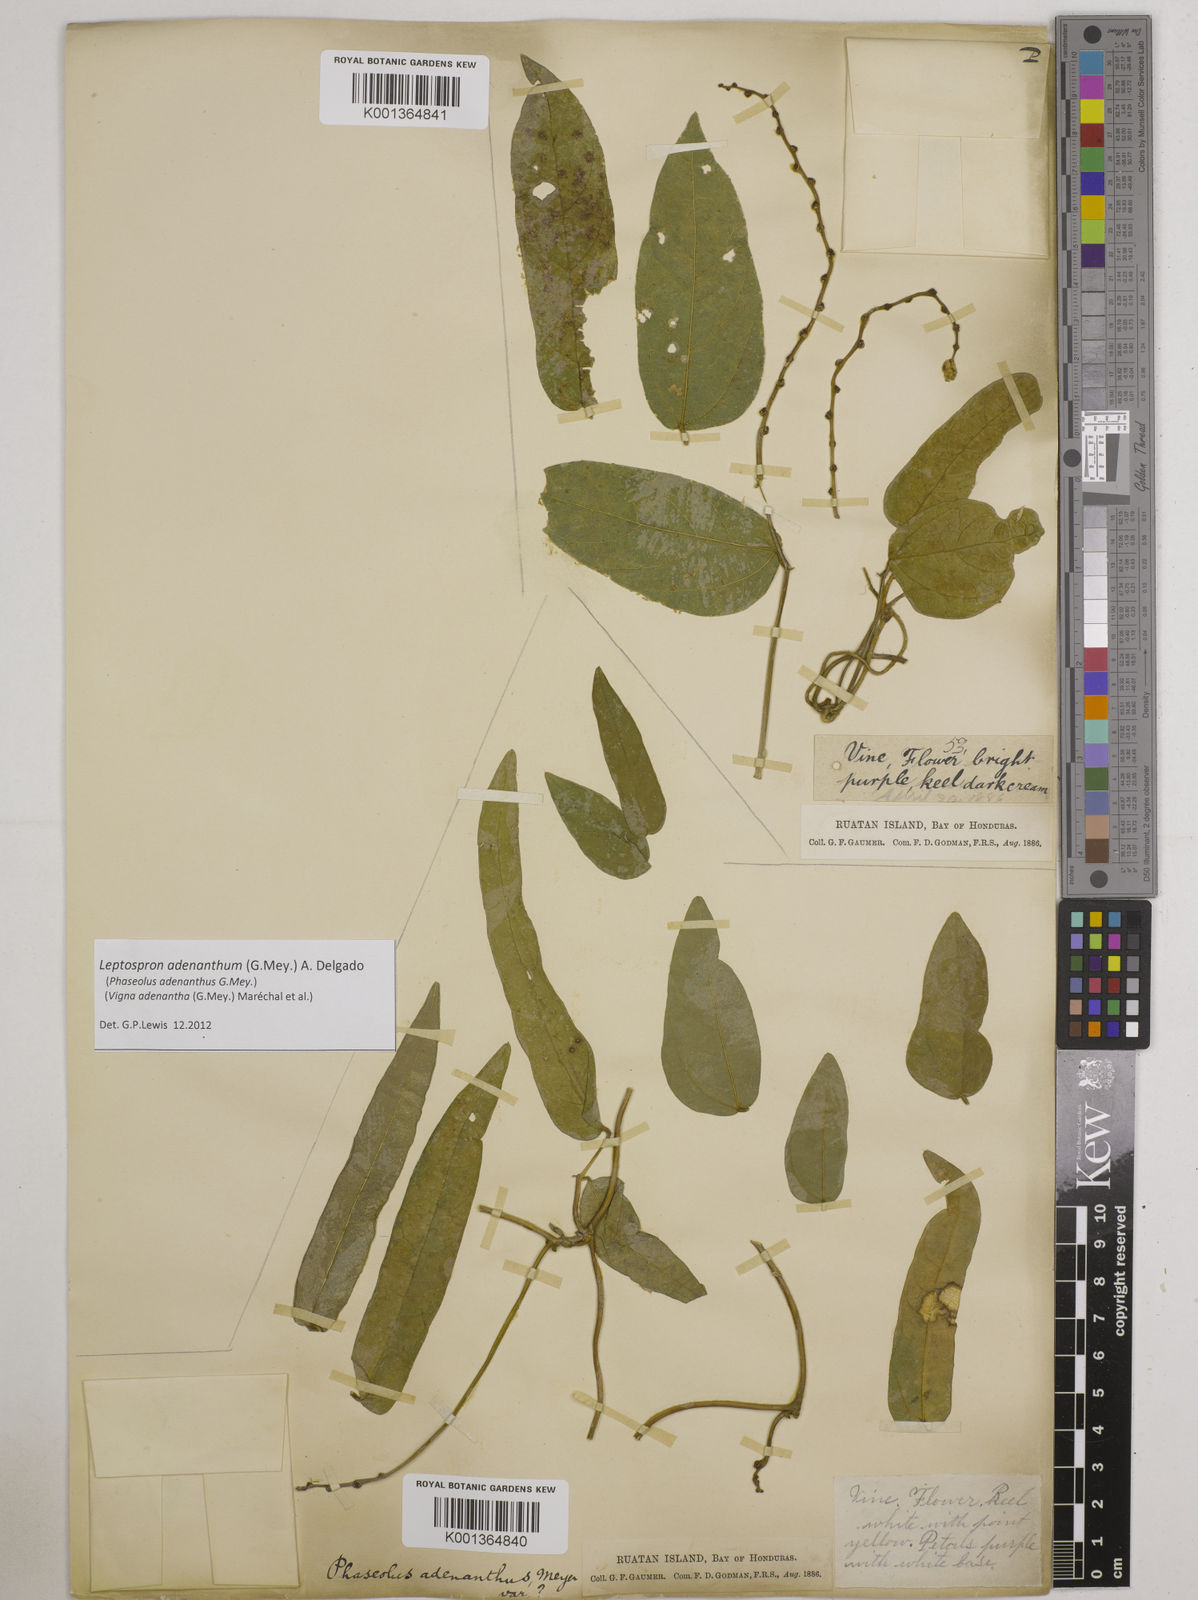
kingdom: Plantae
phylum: Tracheophyta
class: Magnoliopsida
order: Fabales
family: Fabaceae
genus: Leptospron
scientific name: Leptospron adenanthum
